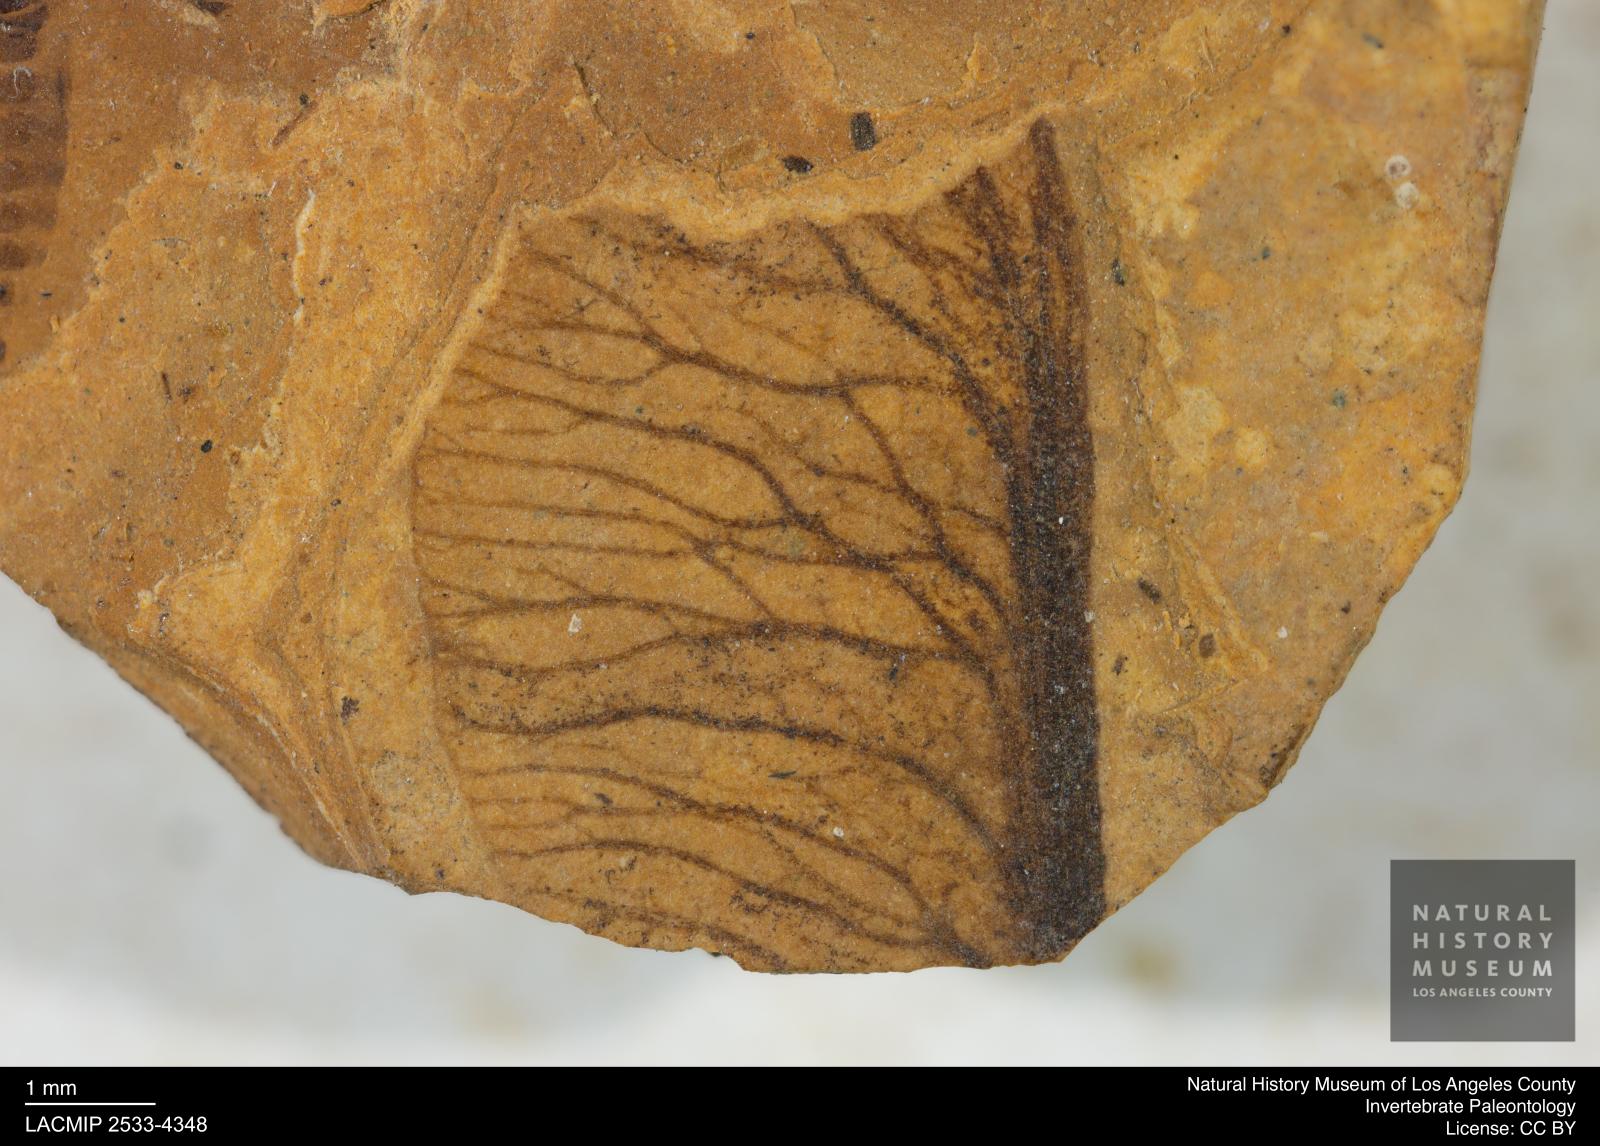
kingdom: Plantae
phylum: Tracheophyta
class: Magnoliopsida
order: Sapindales
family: Sapindaceae
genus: Acer
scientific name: Acer
